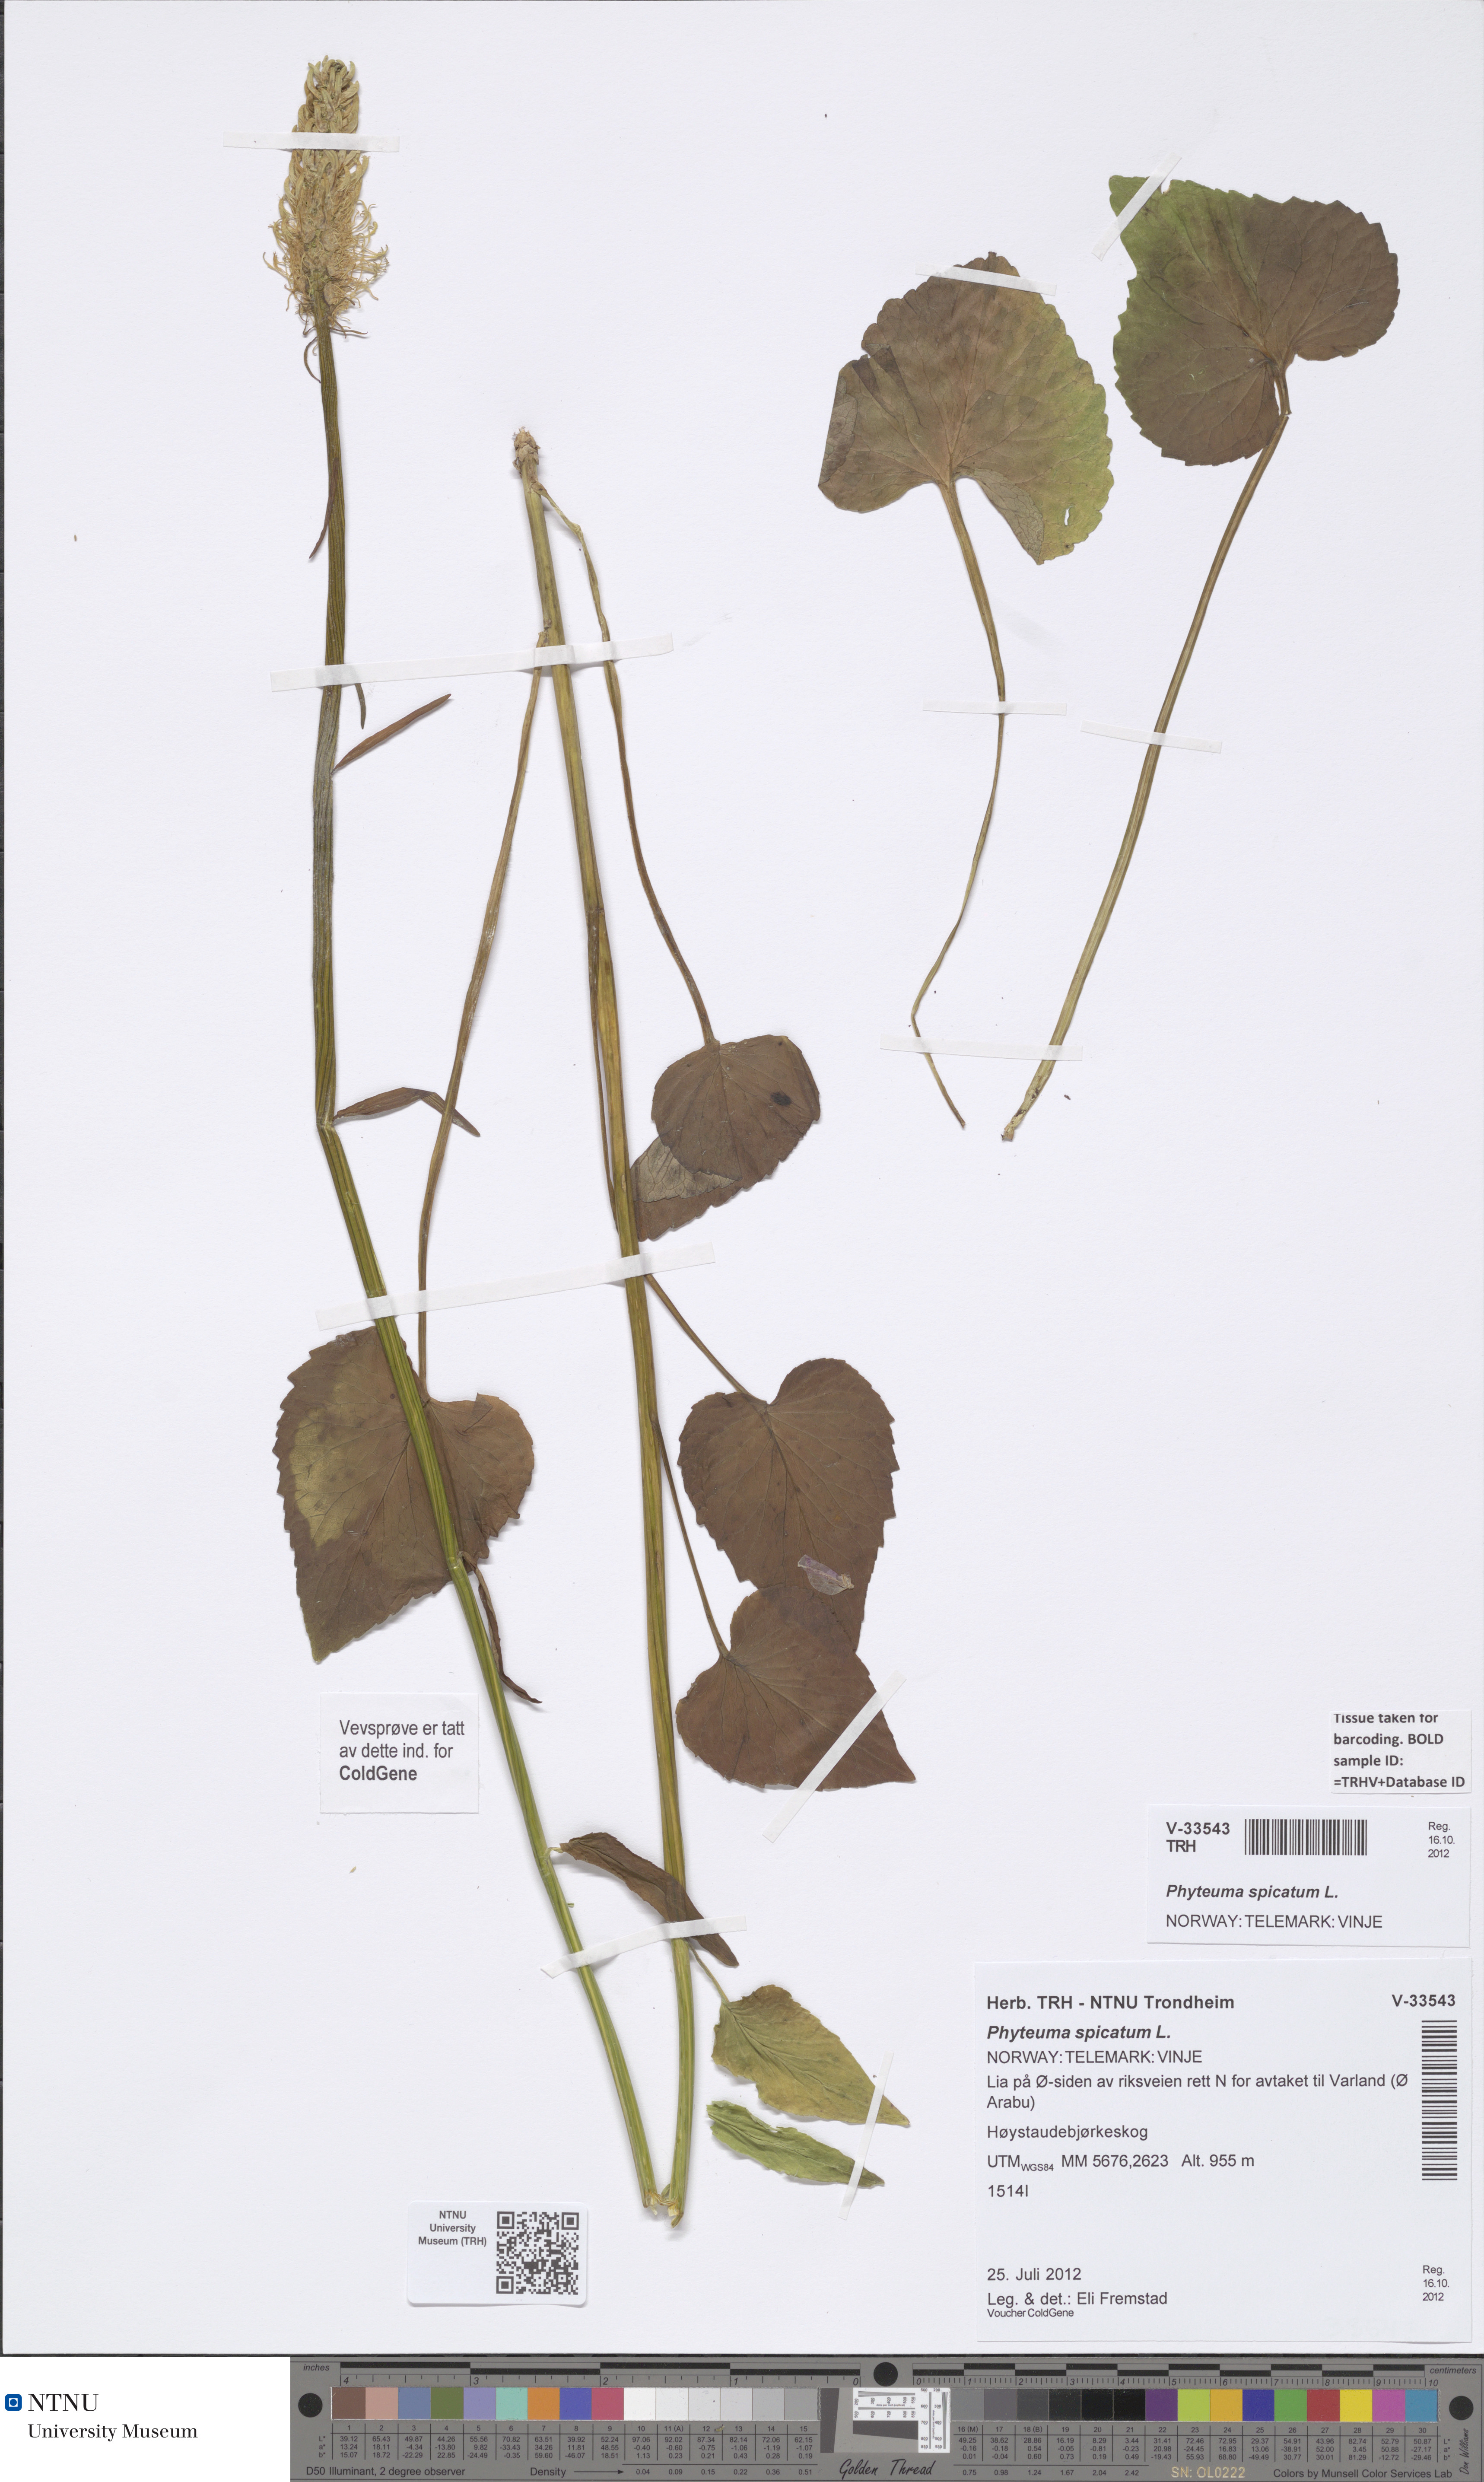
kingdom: Plantae
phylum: Tracheophyta
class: Magnoliopsida
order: Asterales
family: Campanulaceae
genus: Phyteuma
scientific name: Phyteuma spicatum
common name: Spiked rampion
